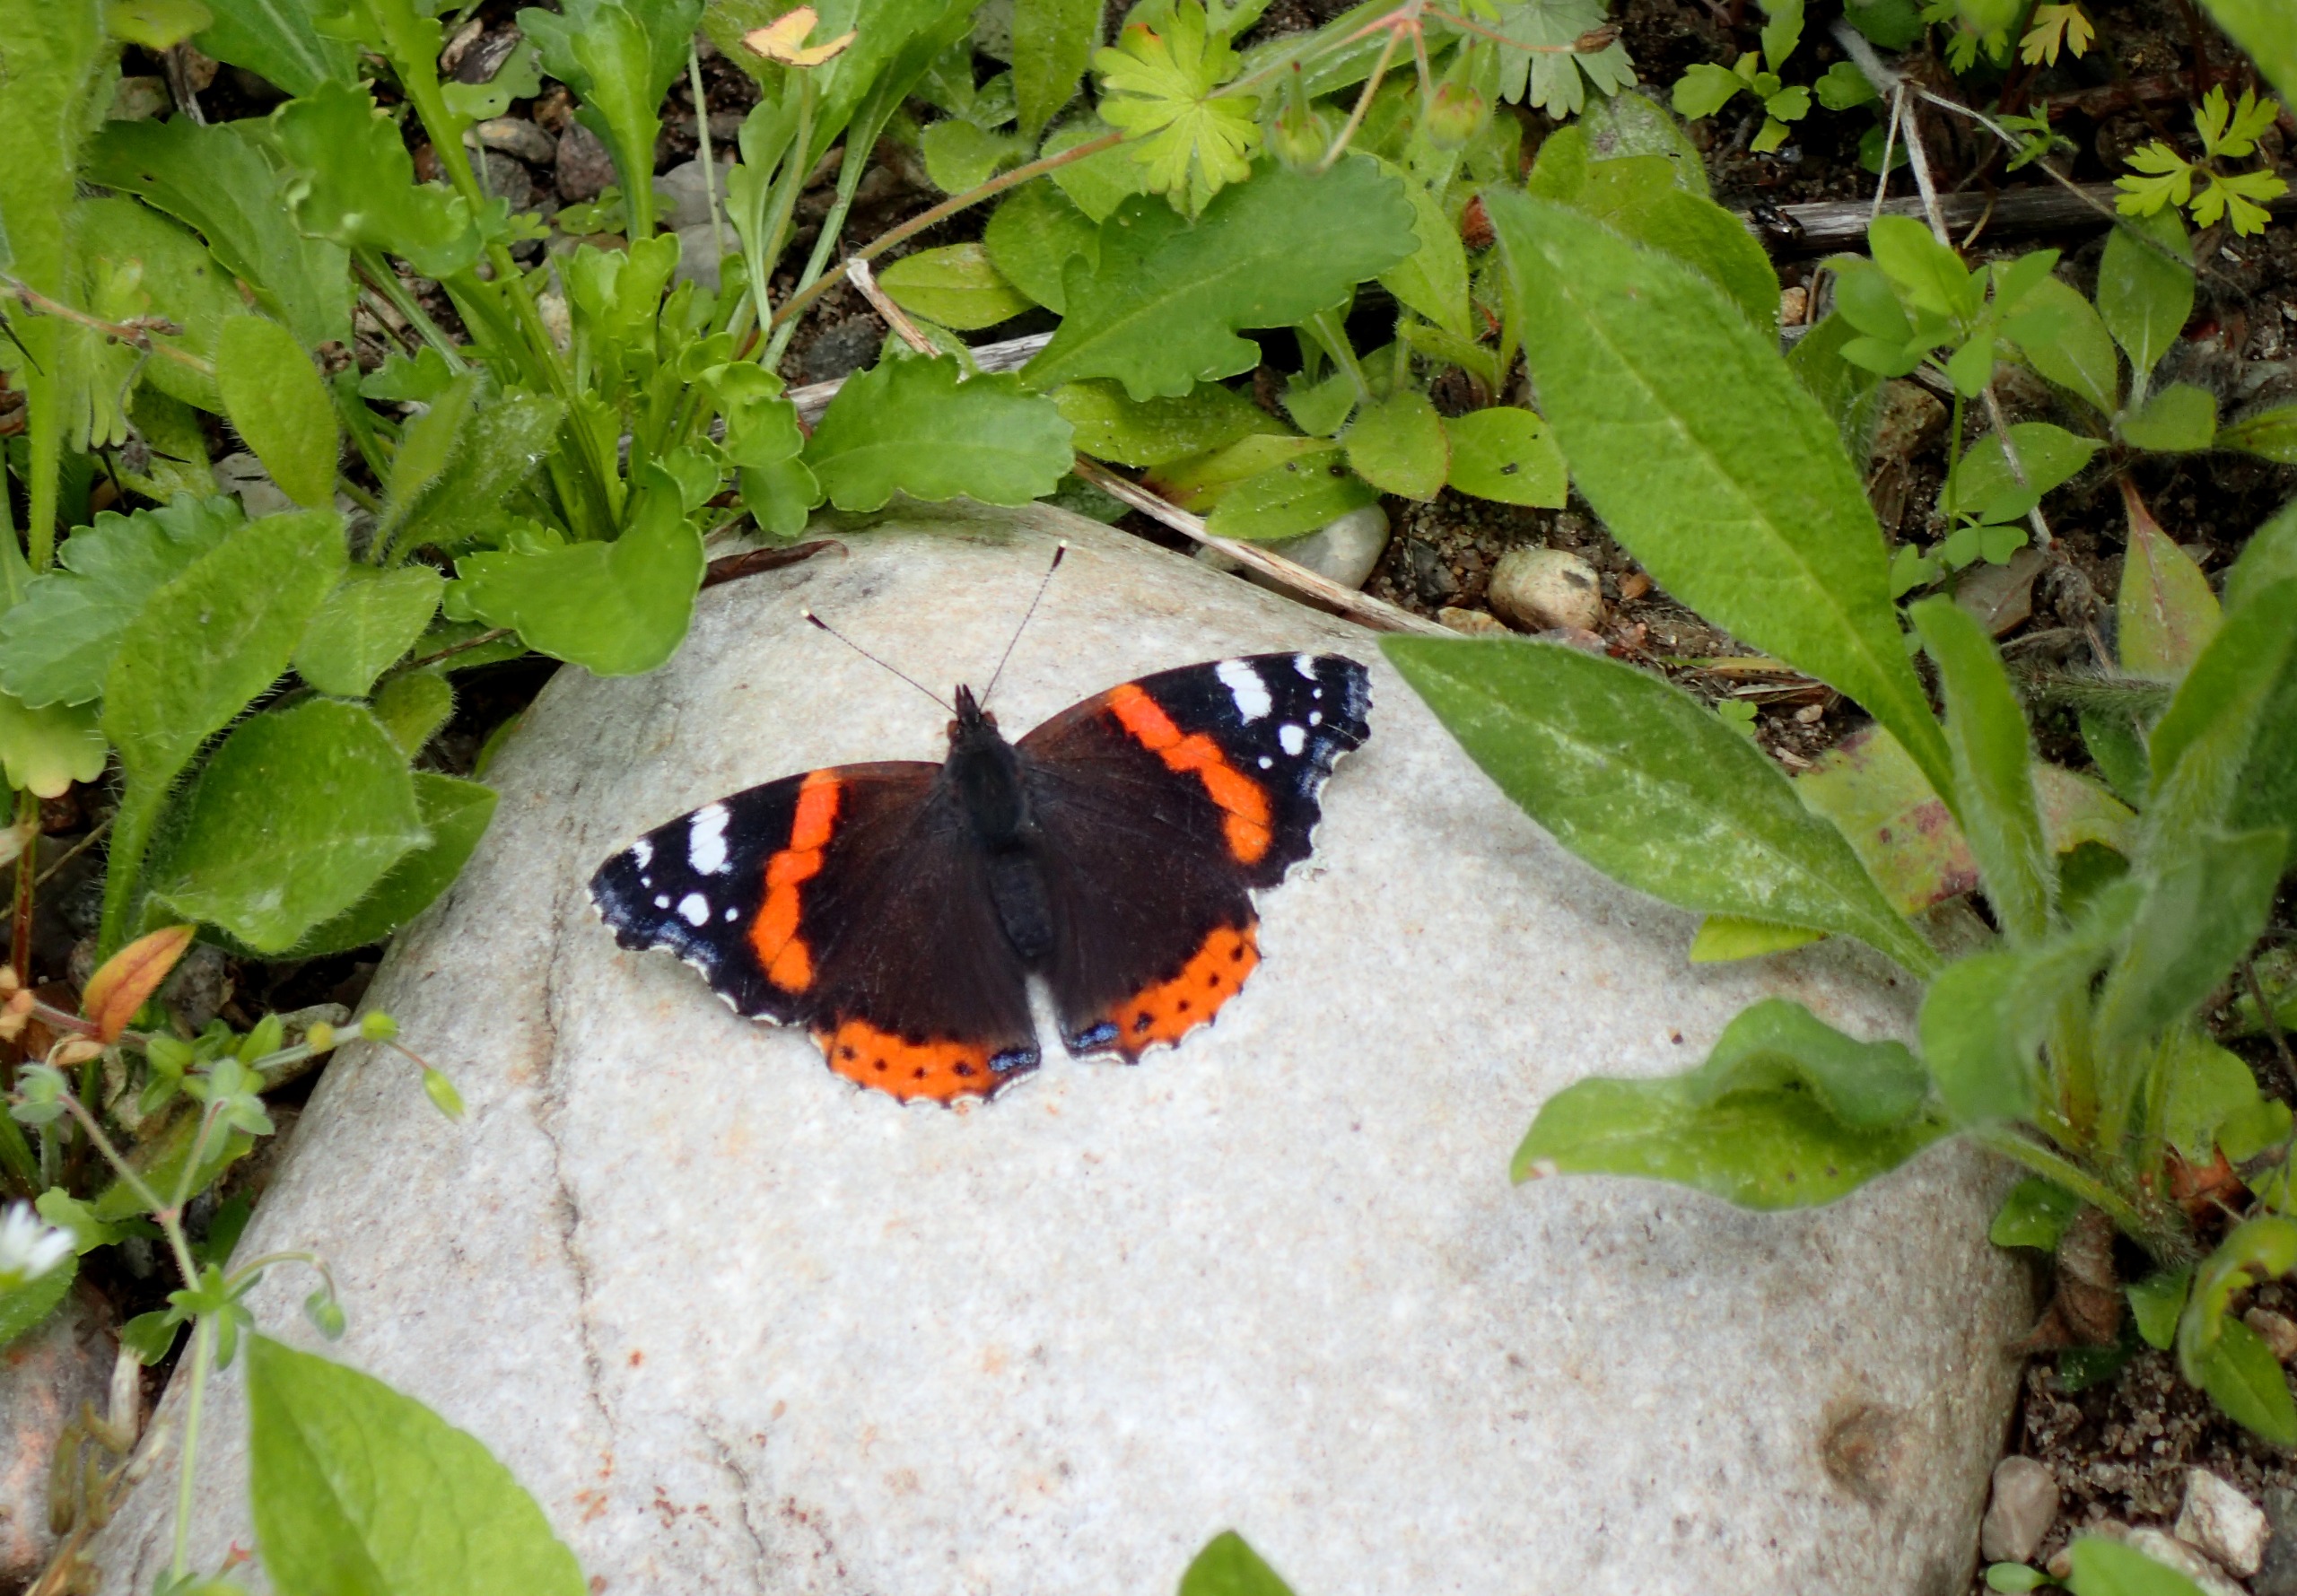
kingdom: Animalia
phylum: Arthropoda
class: Insecta
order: Lepidoptera
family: Nymphalidae
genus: Vanessa
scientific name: Vanessa atalanta
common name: Admiral
